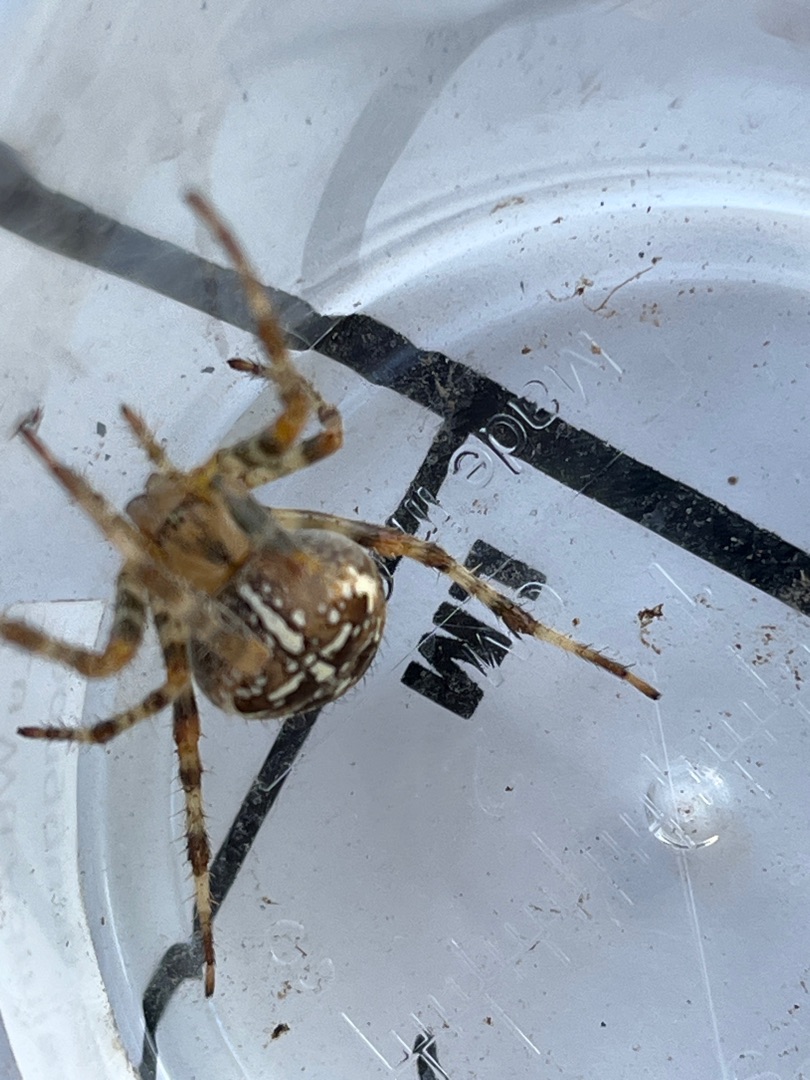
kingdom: Animalia
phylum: Arthropoda
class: Arachnida
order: Araneae
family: Araneidae
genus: Araneus
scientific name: Araneus diadematus
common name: Korsedderkop
